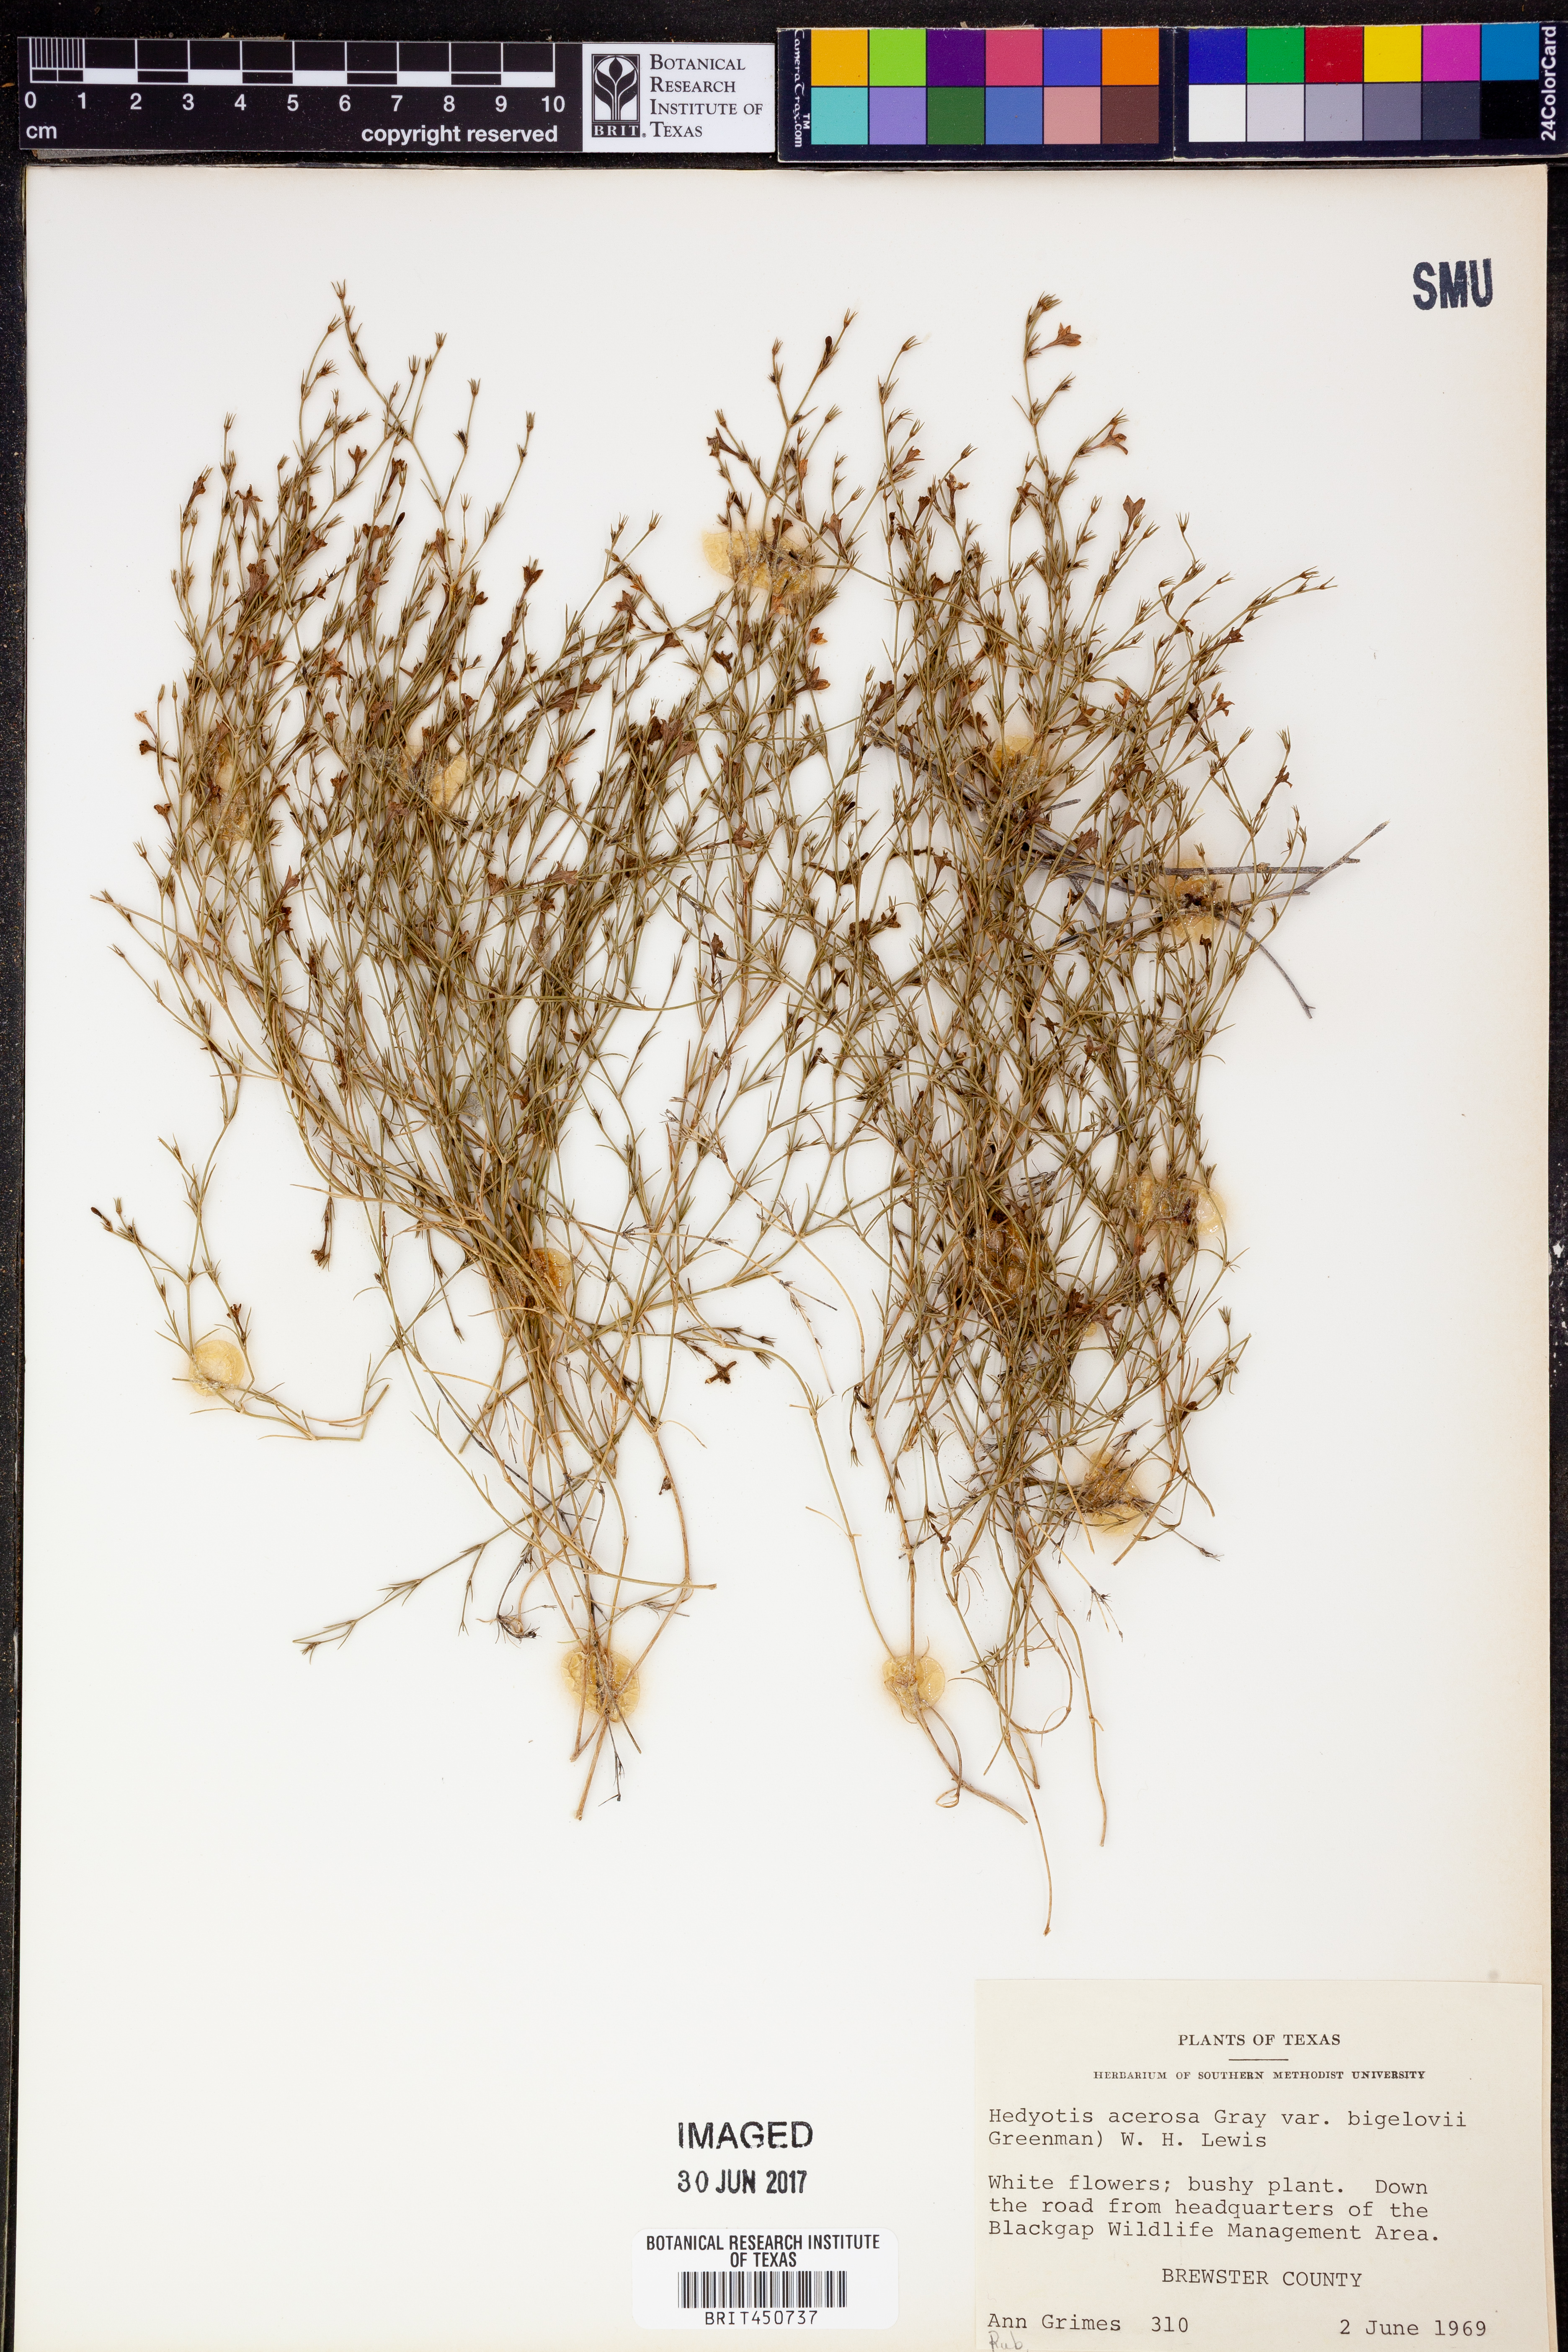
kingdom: Plantae
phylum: Tracheophyta
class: Magnoliopsida
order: Gentianales
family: Rubiaceae
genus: Houstonia
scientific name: Houstonia acerosa
